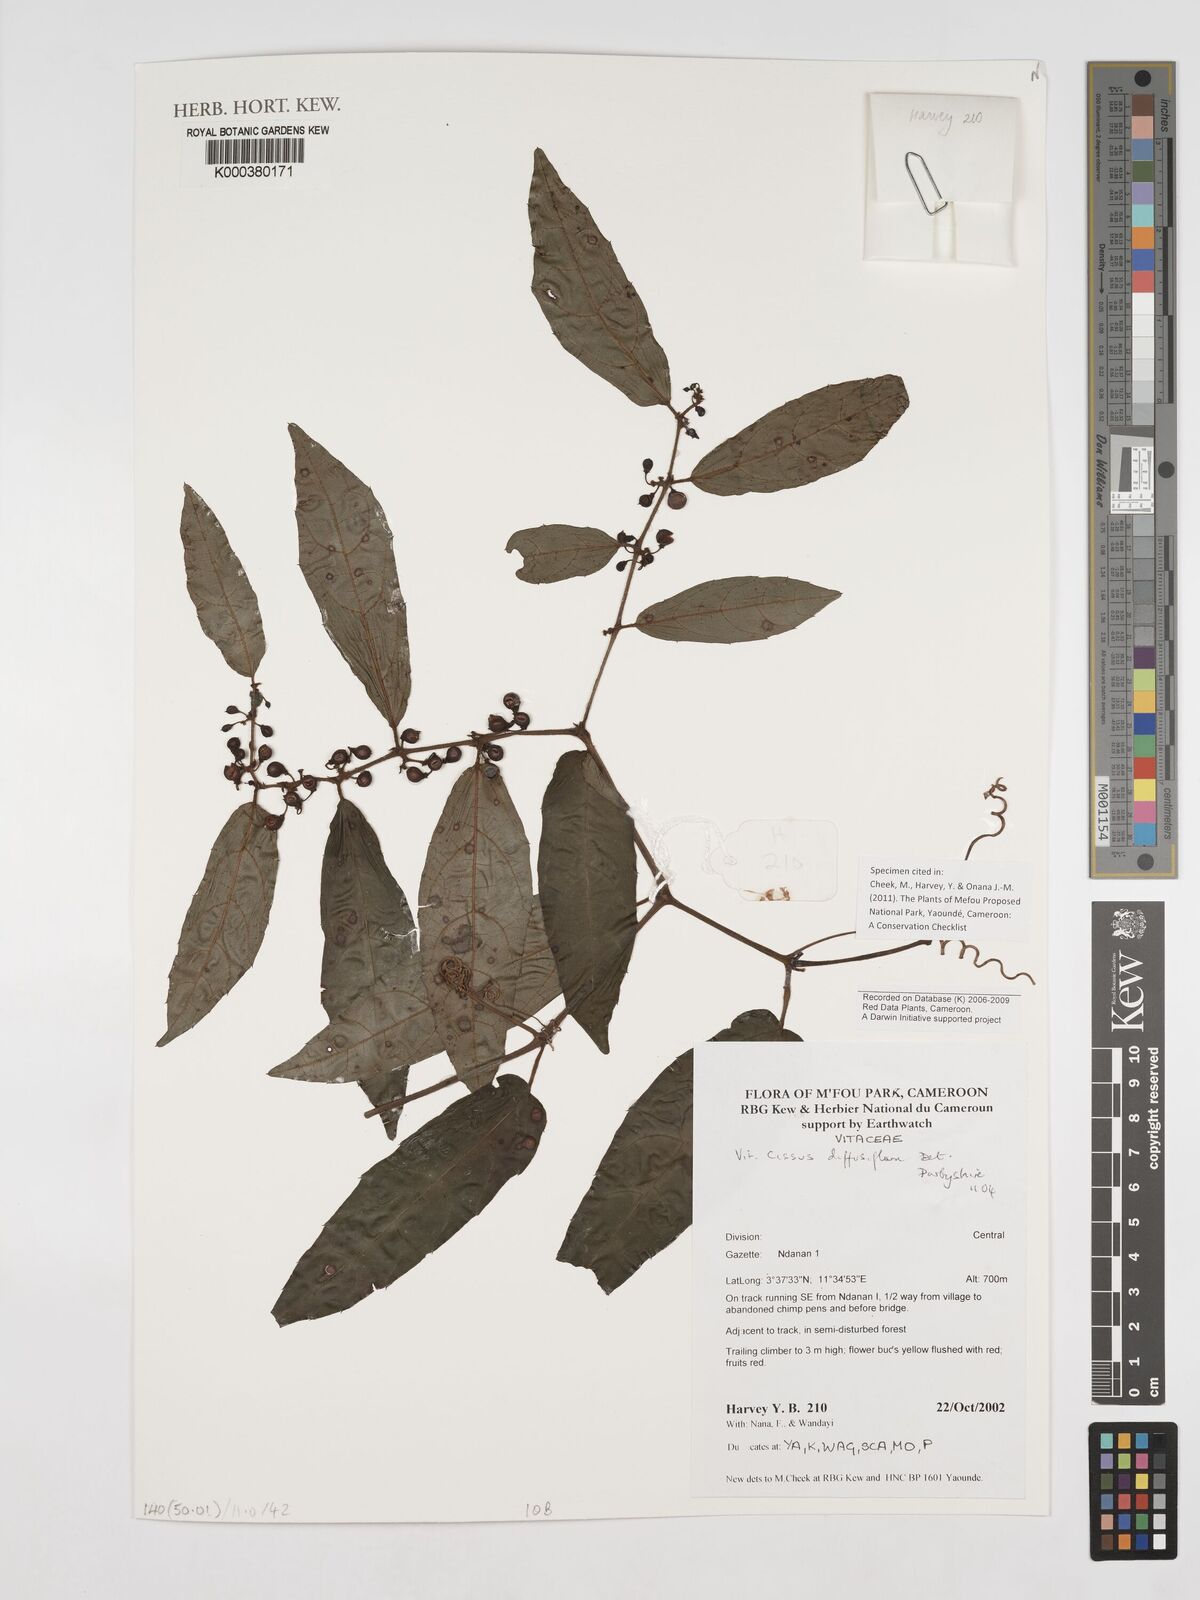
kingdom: Plantae
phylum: Tracheophyta
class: Magnoliopsida
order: Vitales
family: Vitaceae
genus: Cissus
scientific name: Cissus diffusiflora
